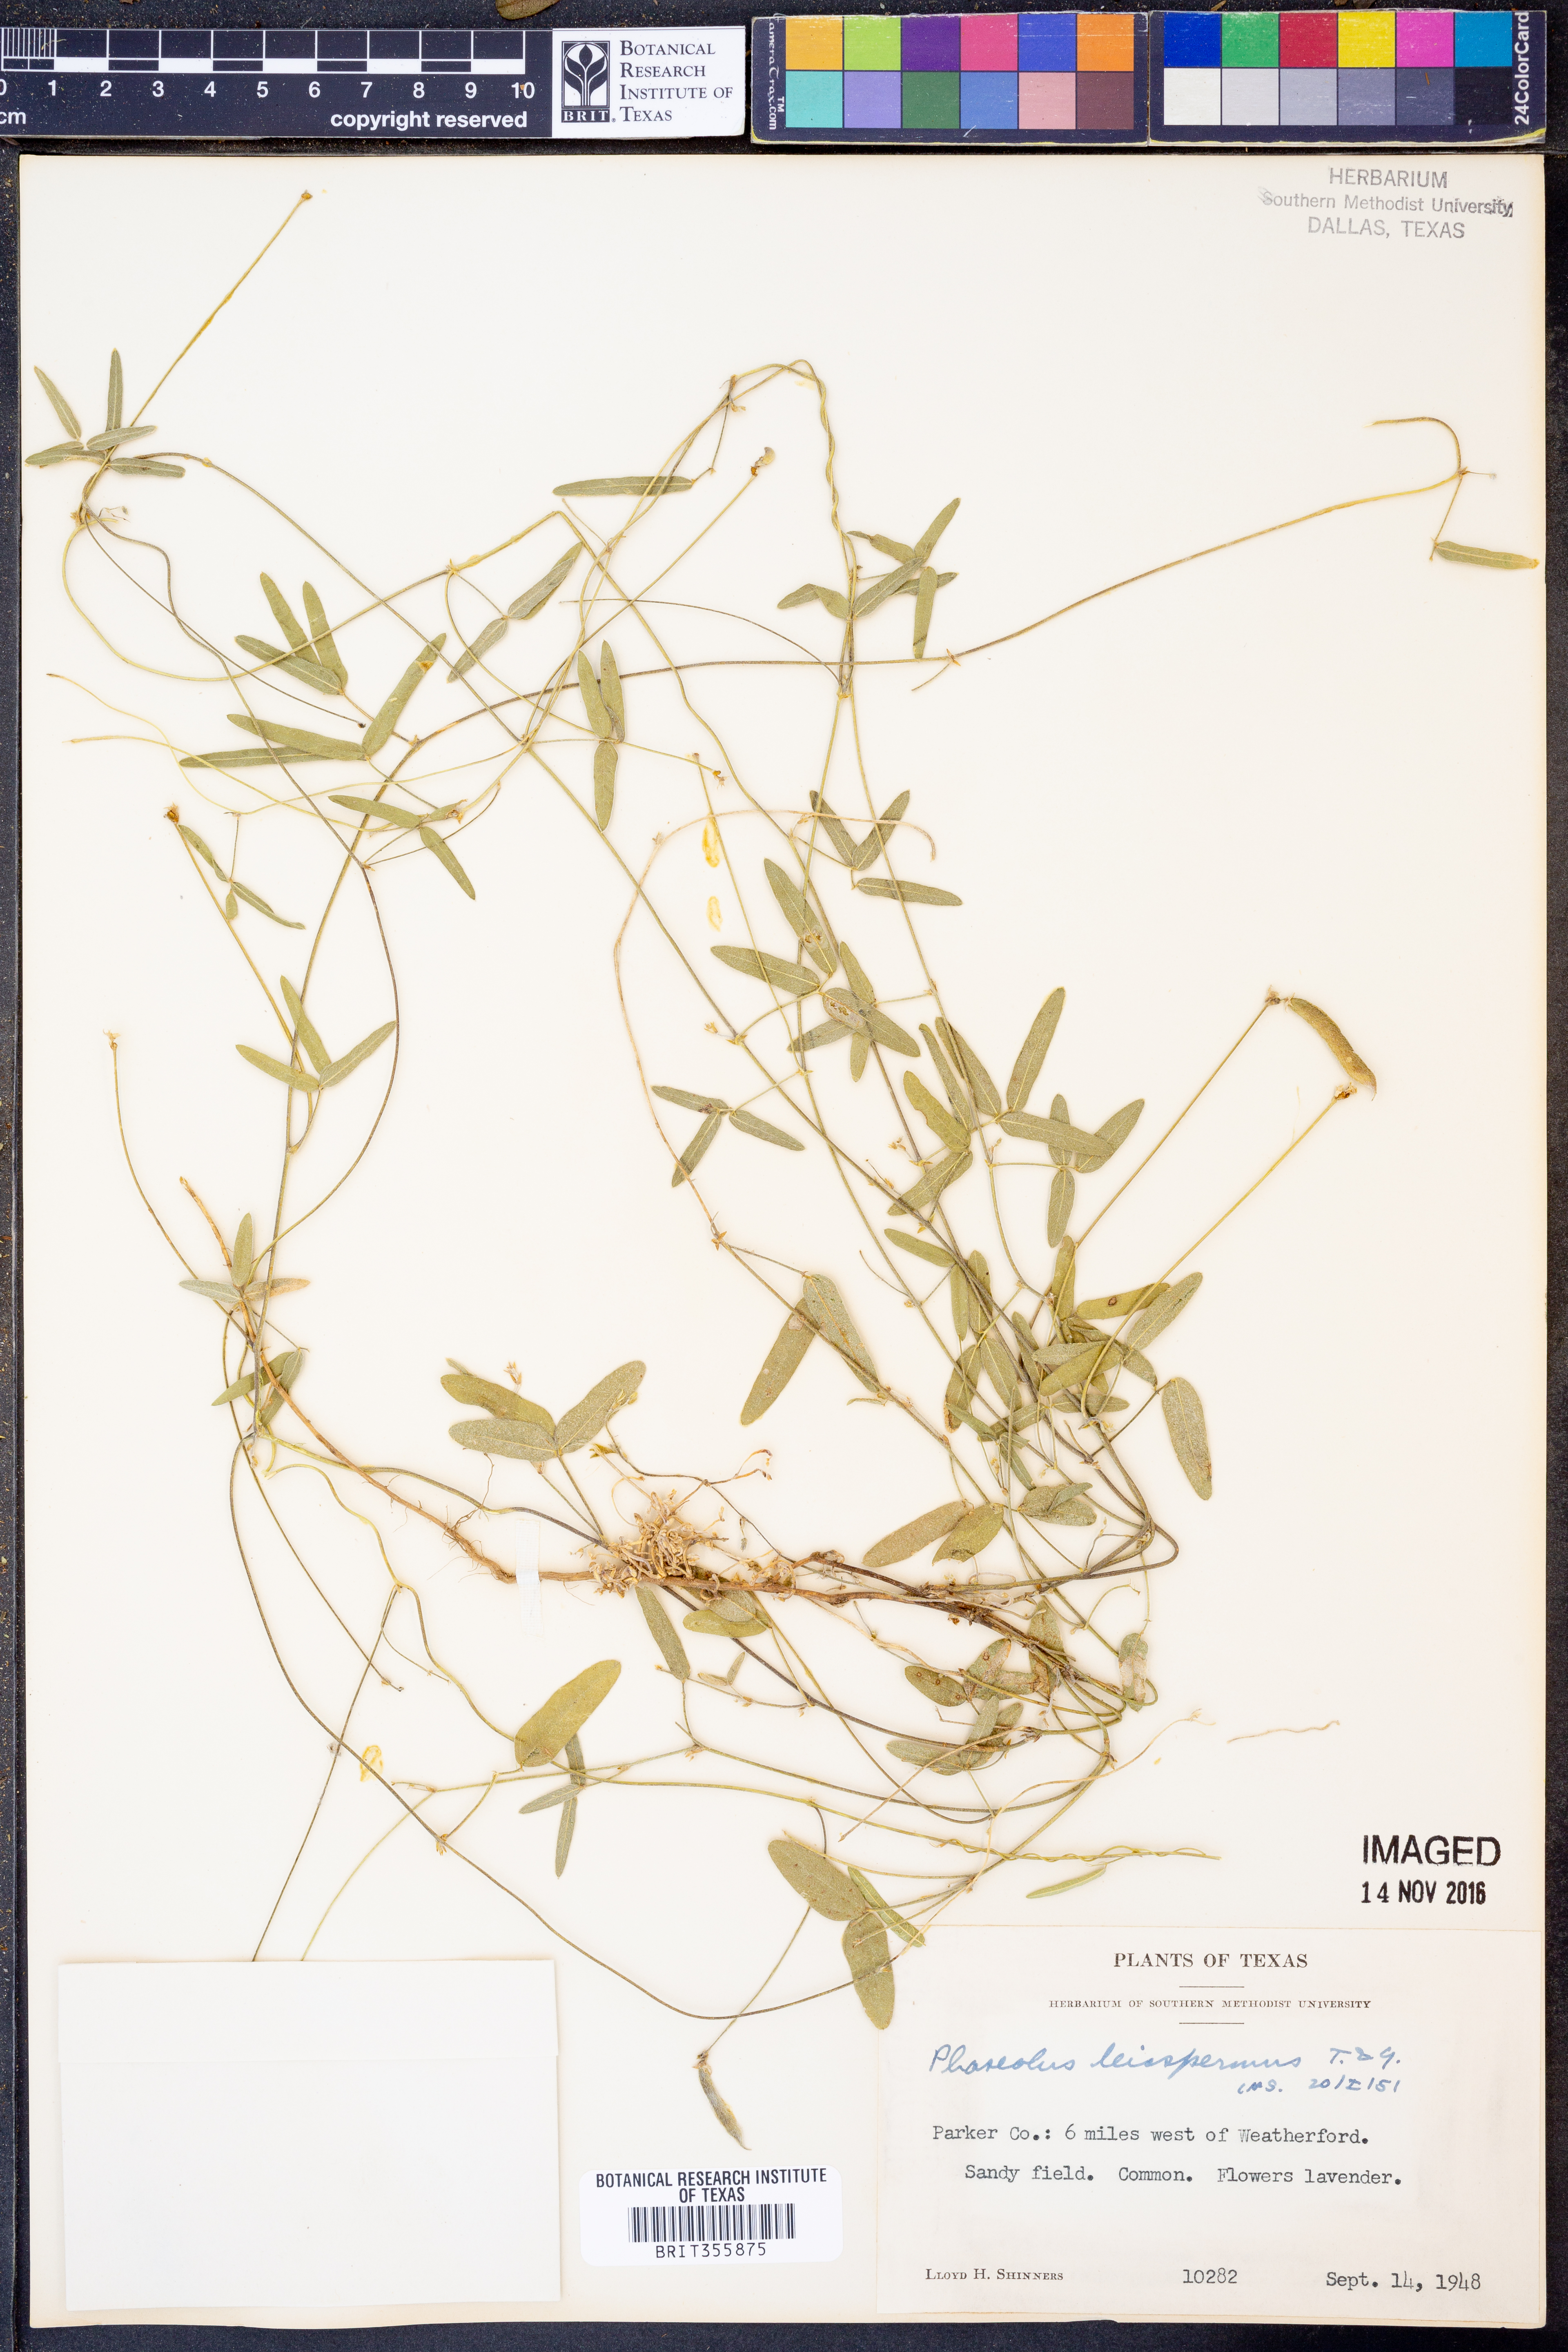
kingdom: Plantae
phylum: Tracheophyta
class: Magnoliopsida
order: Fabales
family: Fabaceae
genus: Strophostyles
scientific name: Strophostyles leiosperma
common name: Smooth-seed wild bean
